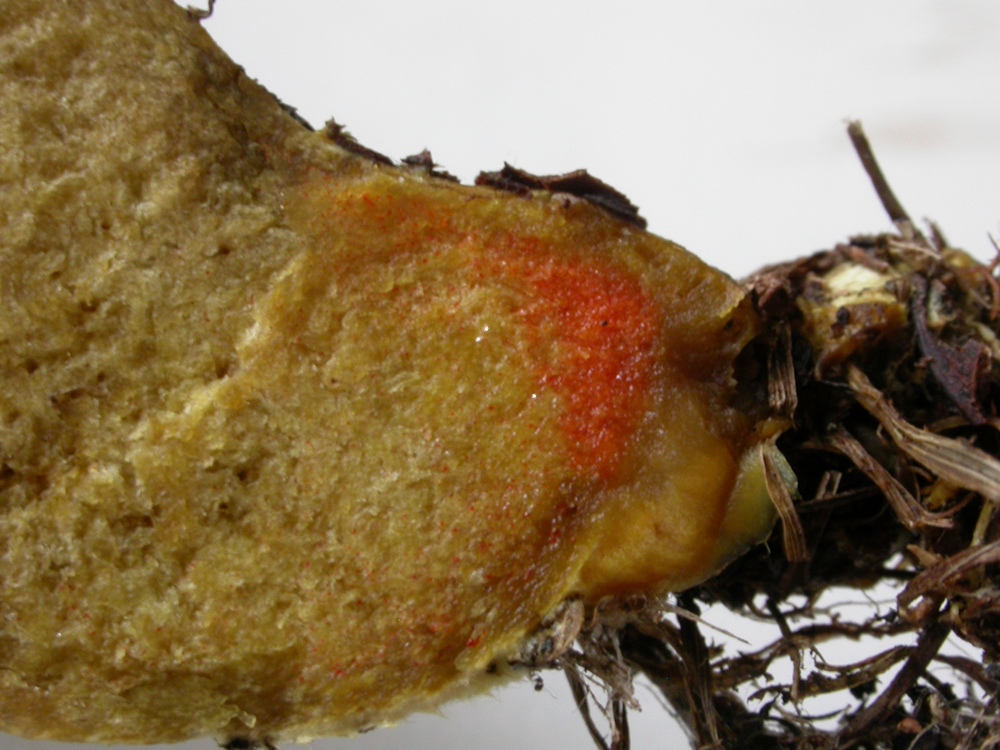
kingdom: Fungi
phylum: Basidiomycota
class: Agaricomycetes
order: Boletales
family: Boletaceae
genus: Hortiboletus
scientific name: Hortiboletus engelii
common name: fersken-rørhat
